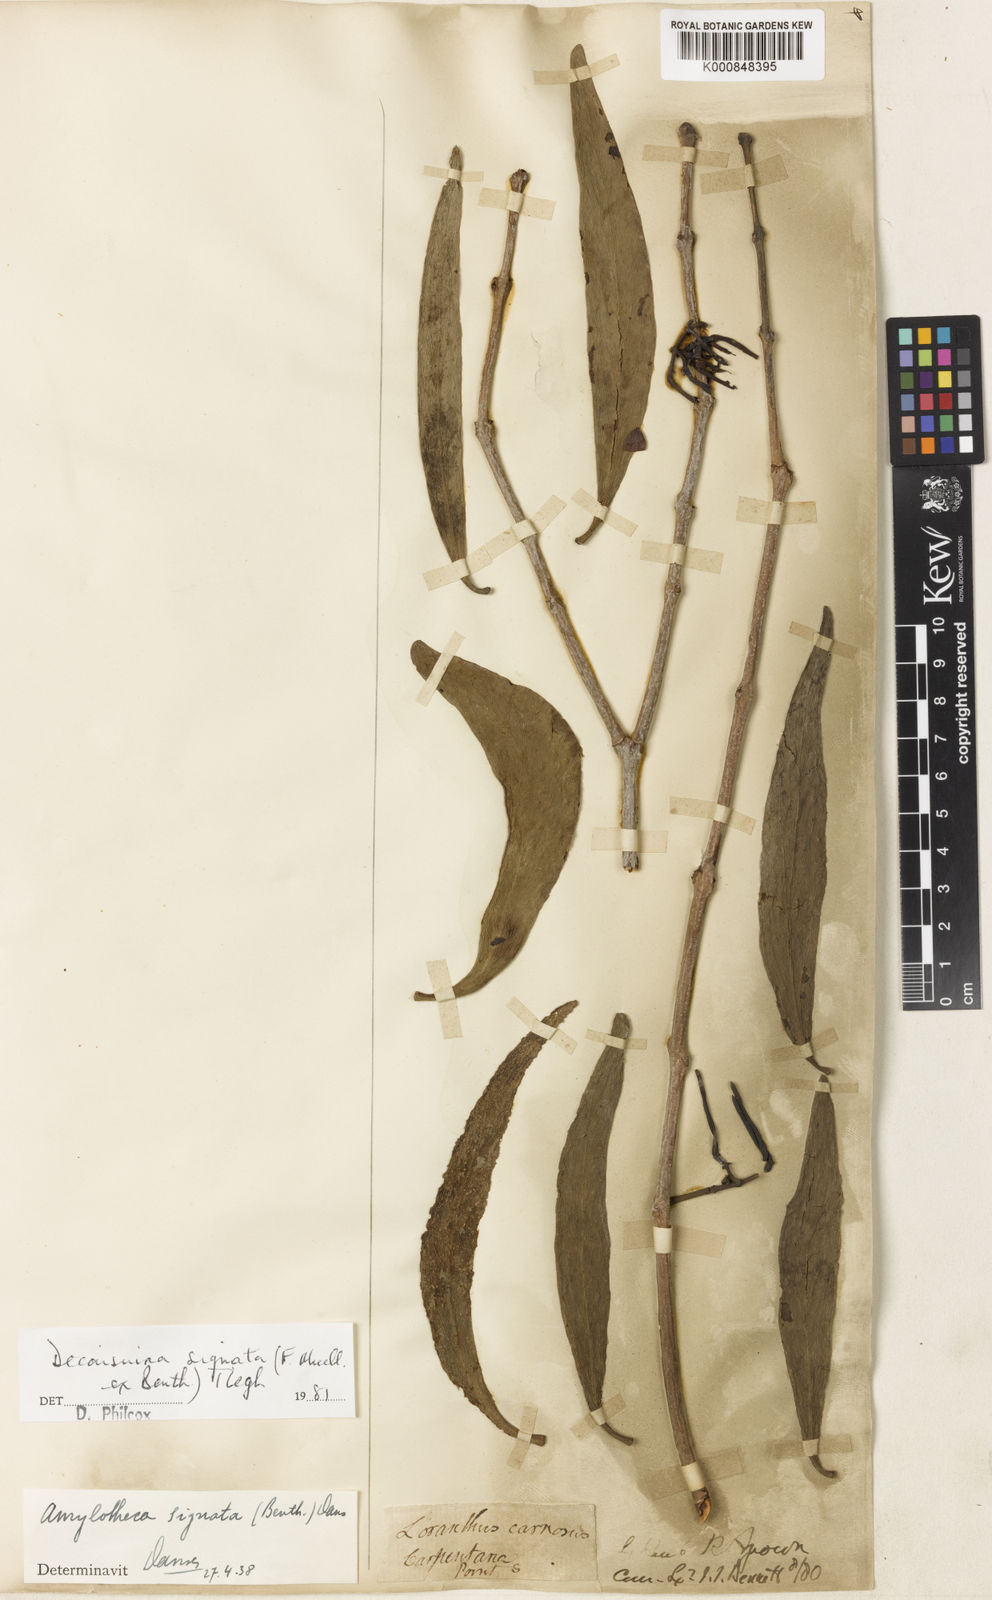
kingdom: Plantae
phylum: Tracheophyta
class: Magnoliopsida
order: Santalales
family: Loranthaceae
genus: Decaisnina
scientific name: Decaisnina signata
